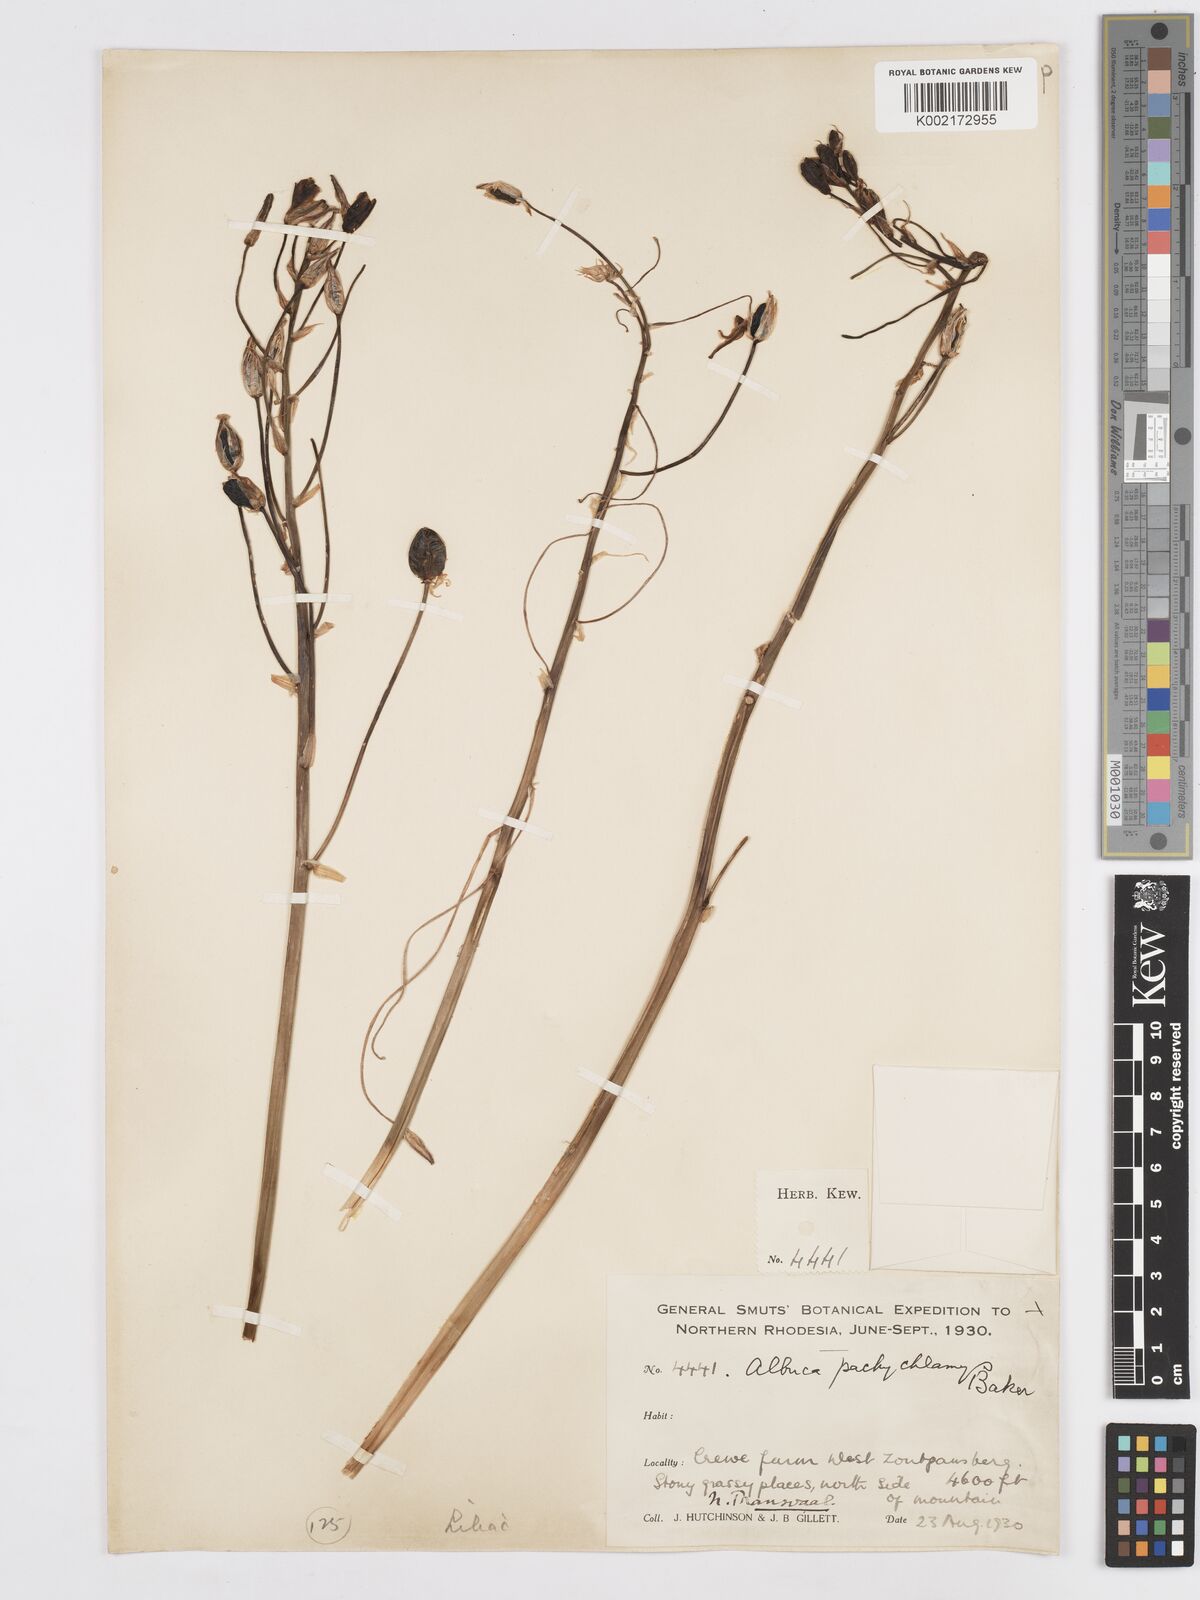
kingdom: Plantae
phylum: Tracheophyta
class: Liliopsida
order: Asparagales
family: Asparagaceae
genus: Albuca
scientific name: Albuca setosa
